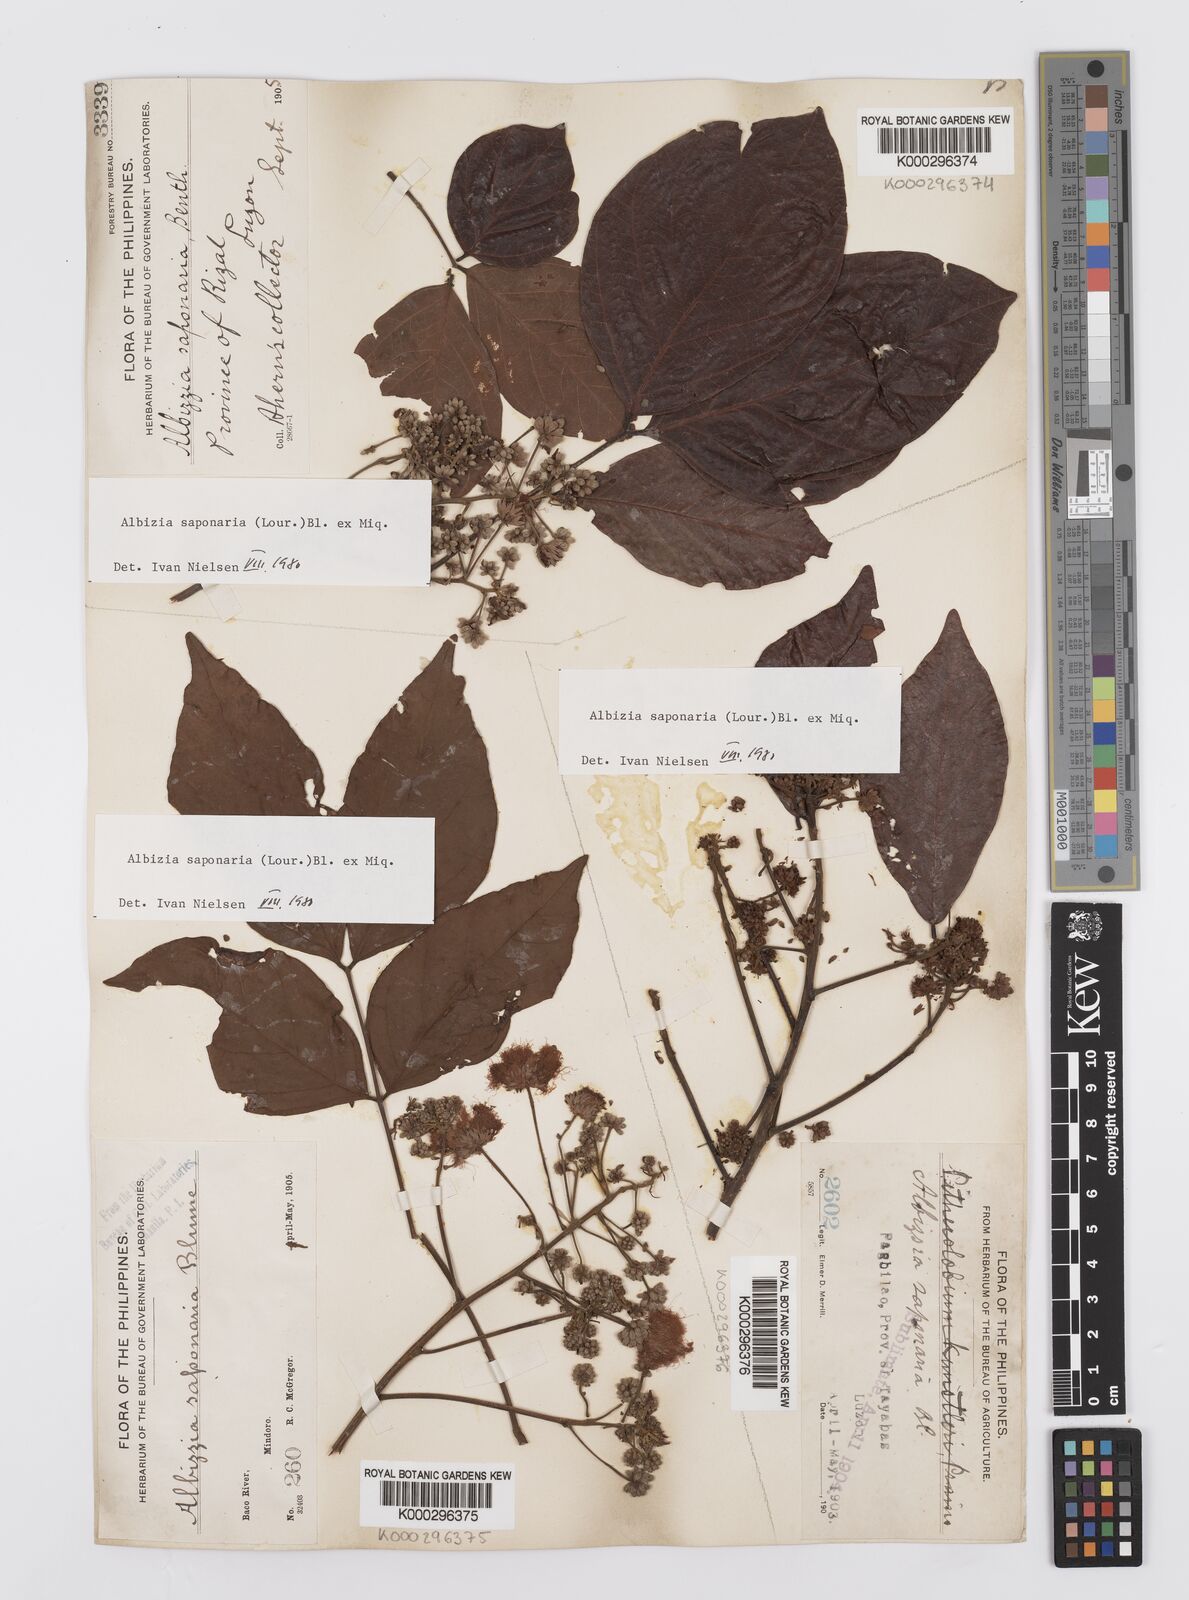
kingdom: Plantae
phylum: Tracheophyta
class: Magnoliopsida
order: Fabales
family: Fabaceae
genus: Albizia
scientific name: Albizia saponaria
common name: Whiteflower albizia
